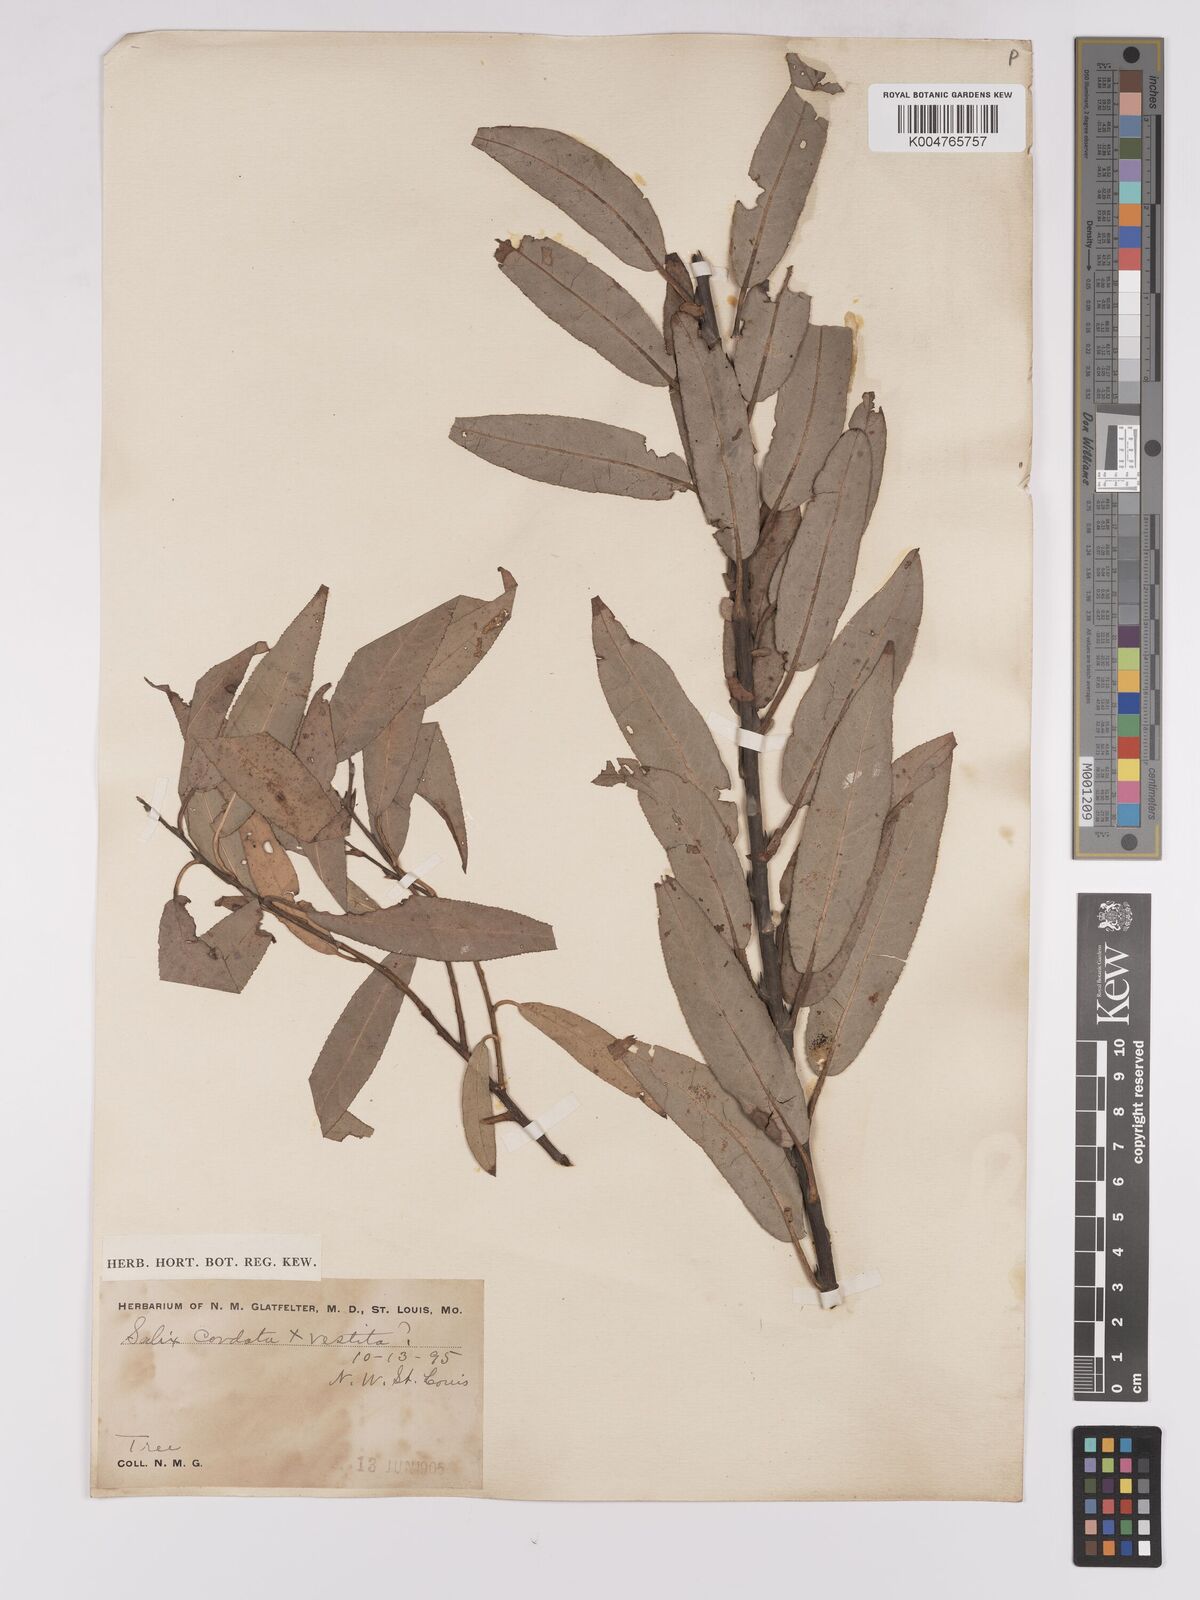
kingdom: Plantae
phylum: Tracheophyta
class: Magnoliopsida
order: Malpighiales
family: Salicaceae
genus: Salix
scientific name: Salix cordata
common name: Heart-leaf willow
